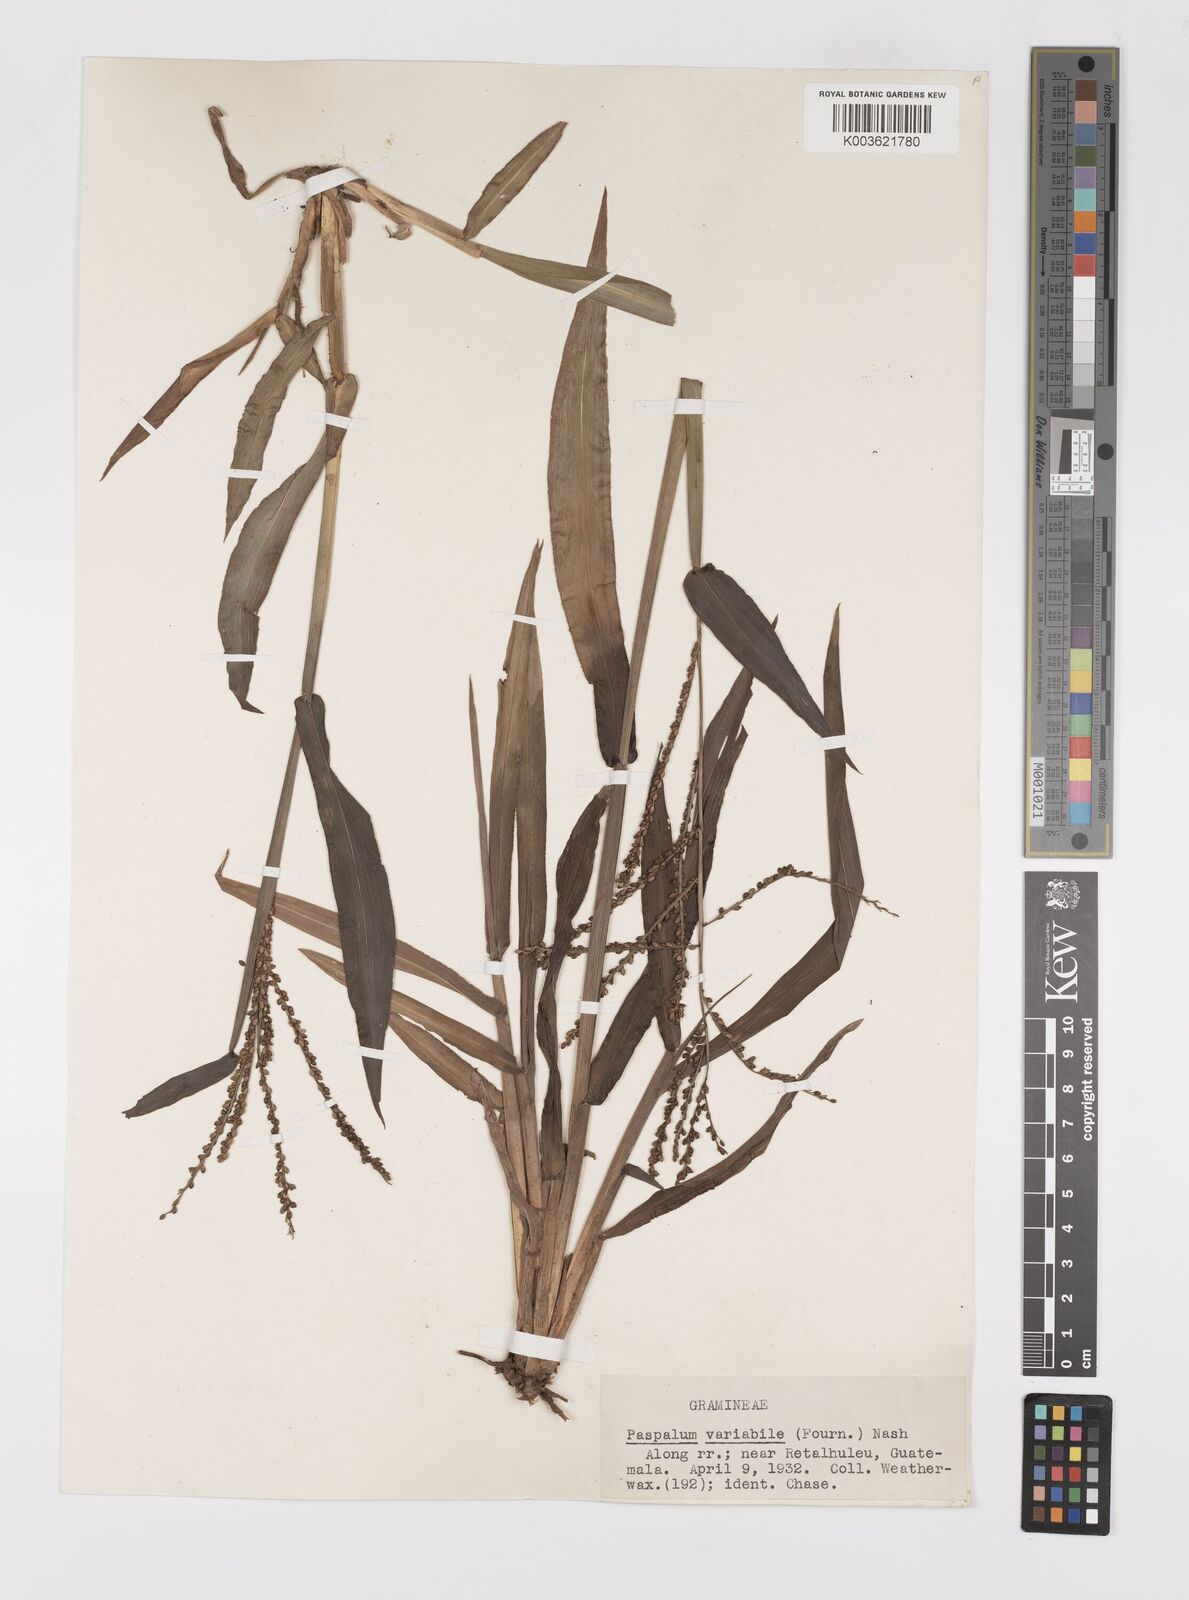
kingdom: Plantae
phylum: Tracheophyta
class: Liliopsida
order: Poales
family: Poaceae
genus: Paspalum
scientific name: Paspalum variabile
